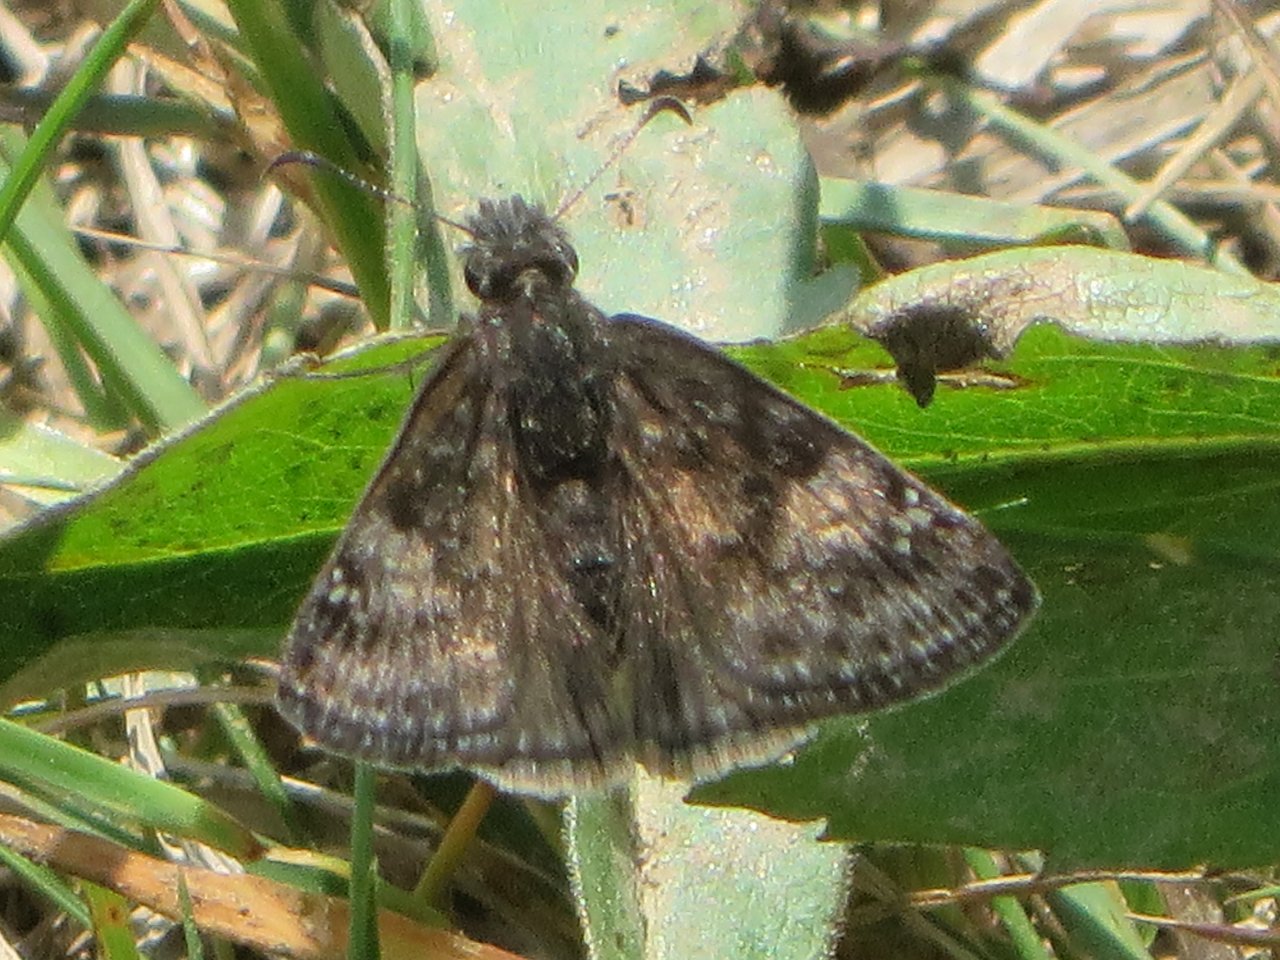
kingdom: Animalia
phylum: Arthropoda
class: Insecta
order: Lepidoptera
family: Hesperiidae
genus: Gesta
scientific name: Gesta
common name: Wild Indigo Duskywing
